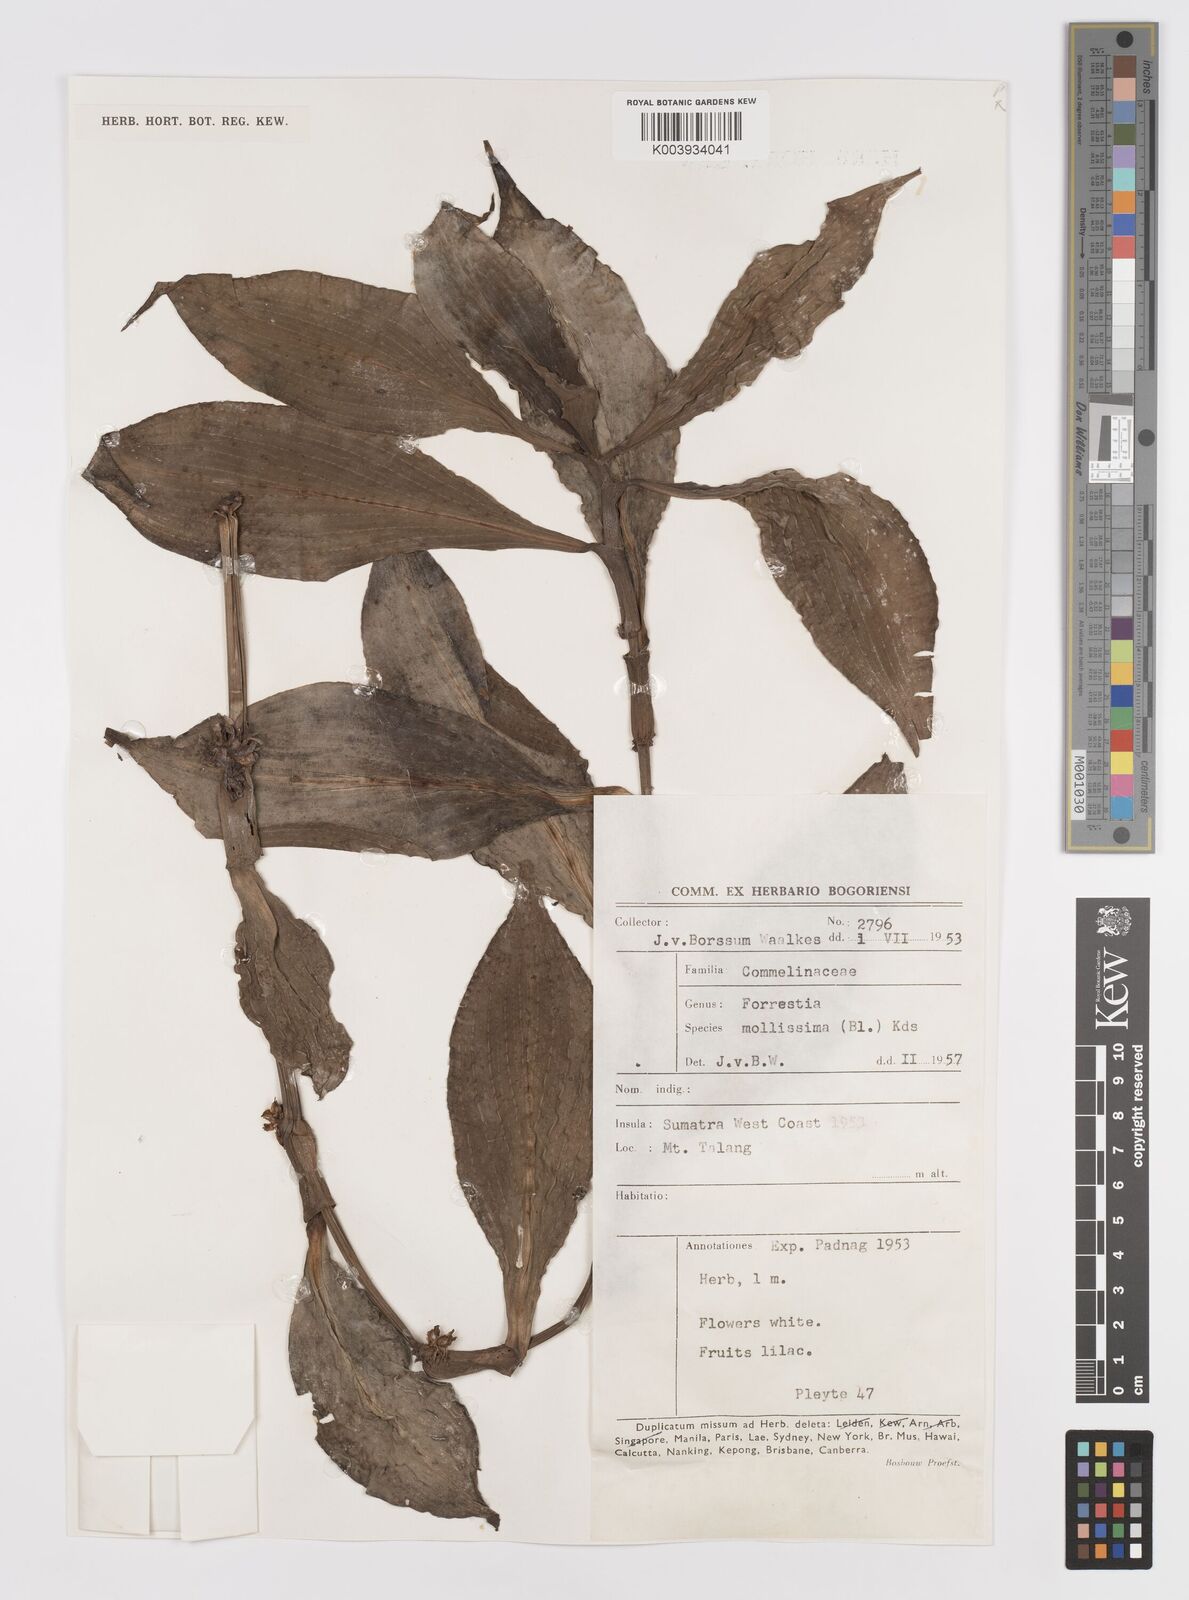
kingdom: Plantae
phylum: Tracheophyta
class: Liliopsida
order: Commelinales
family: Commelinaceae
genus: Amischotolype
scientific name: Amischotolype mollissima
